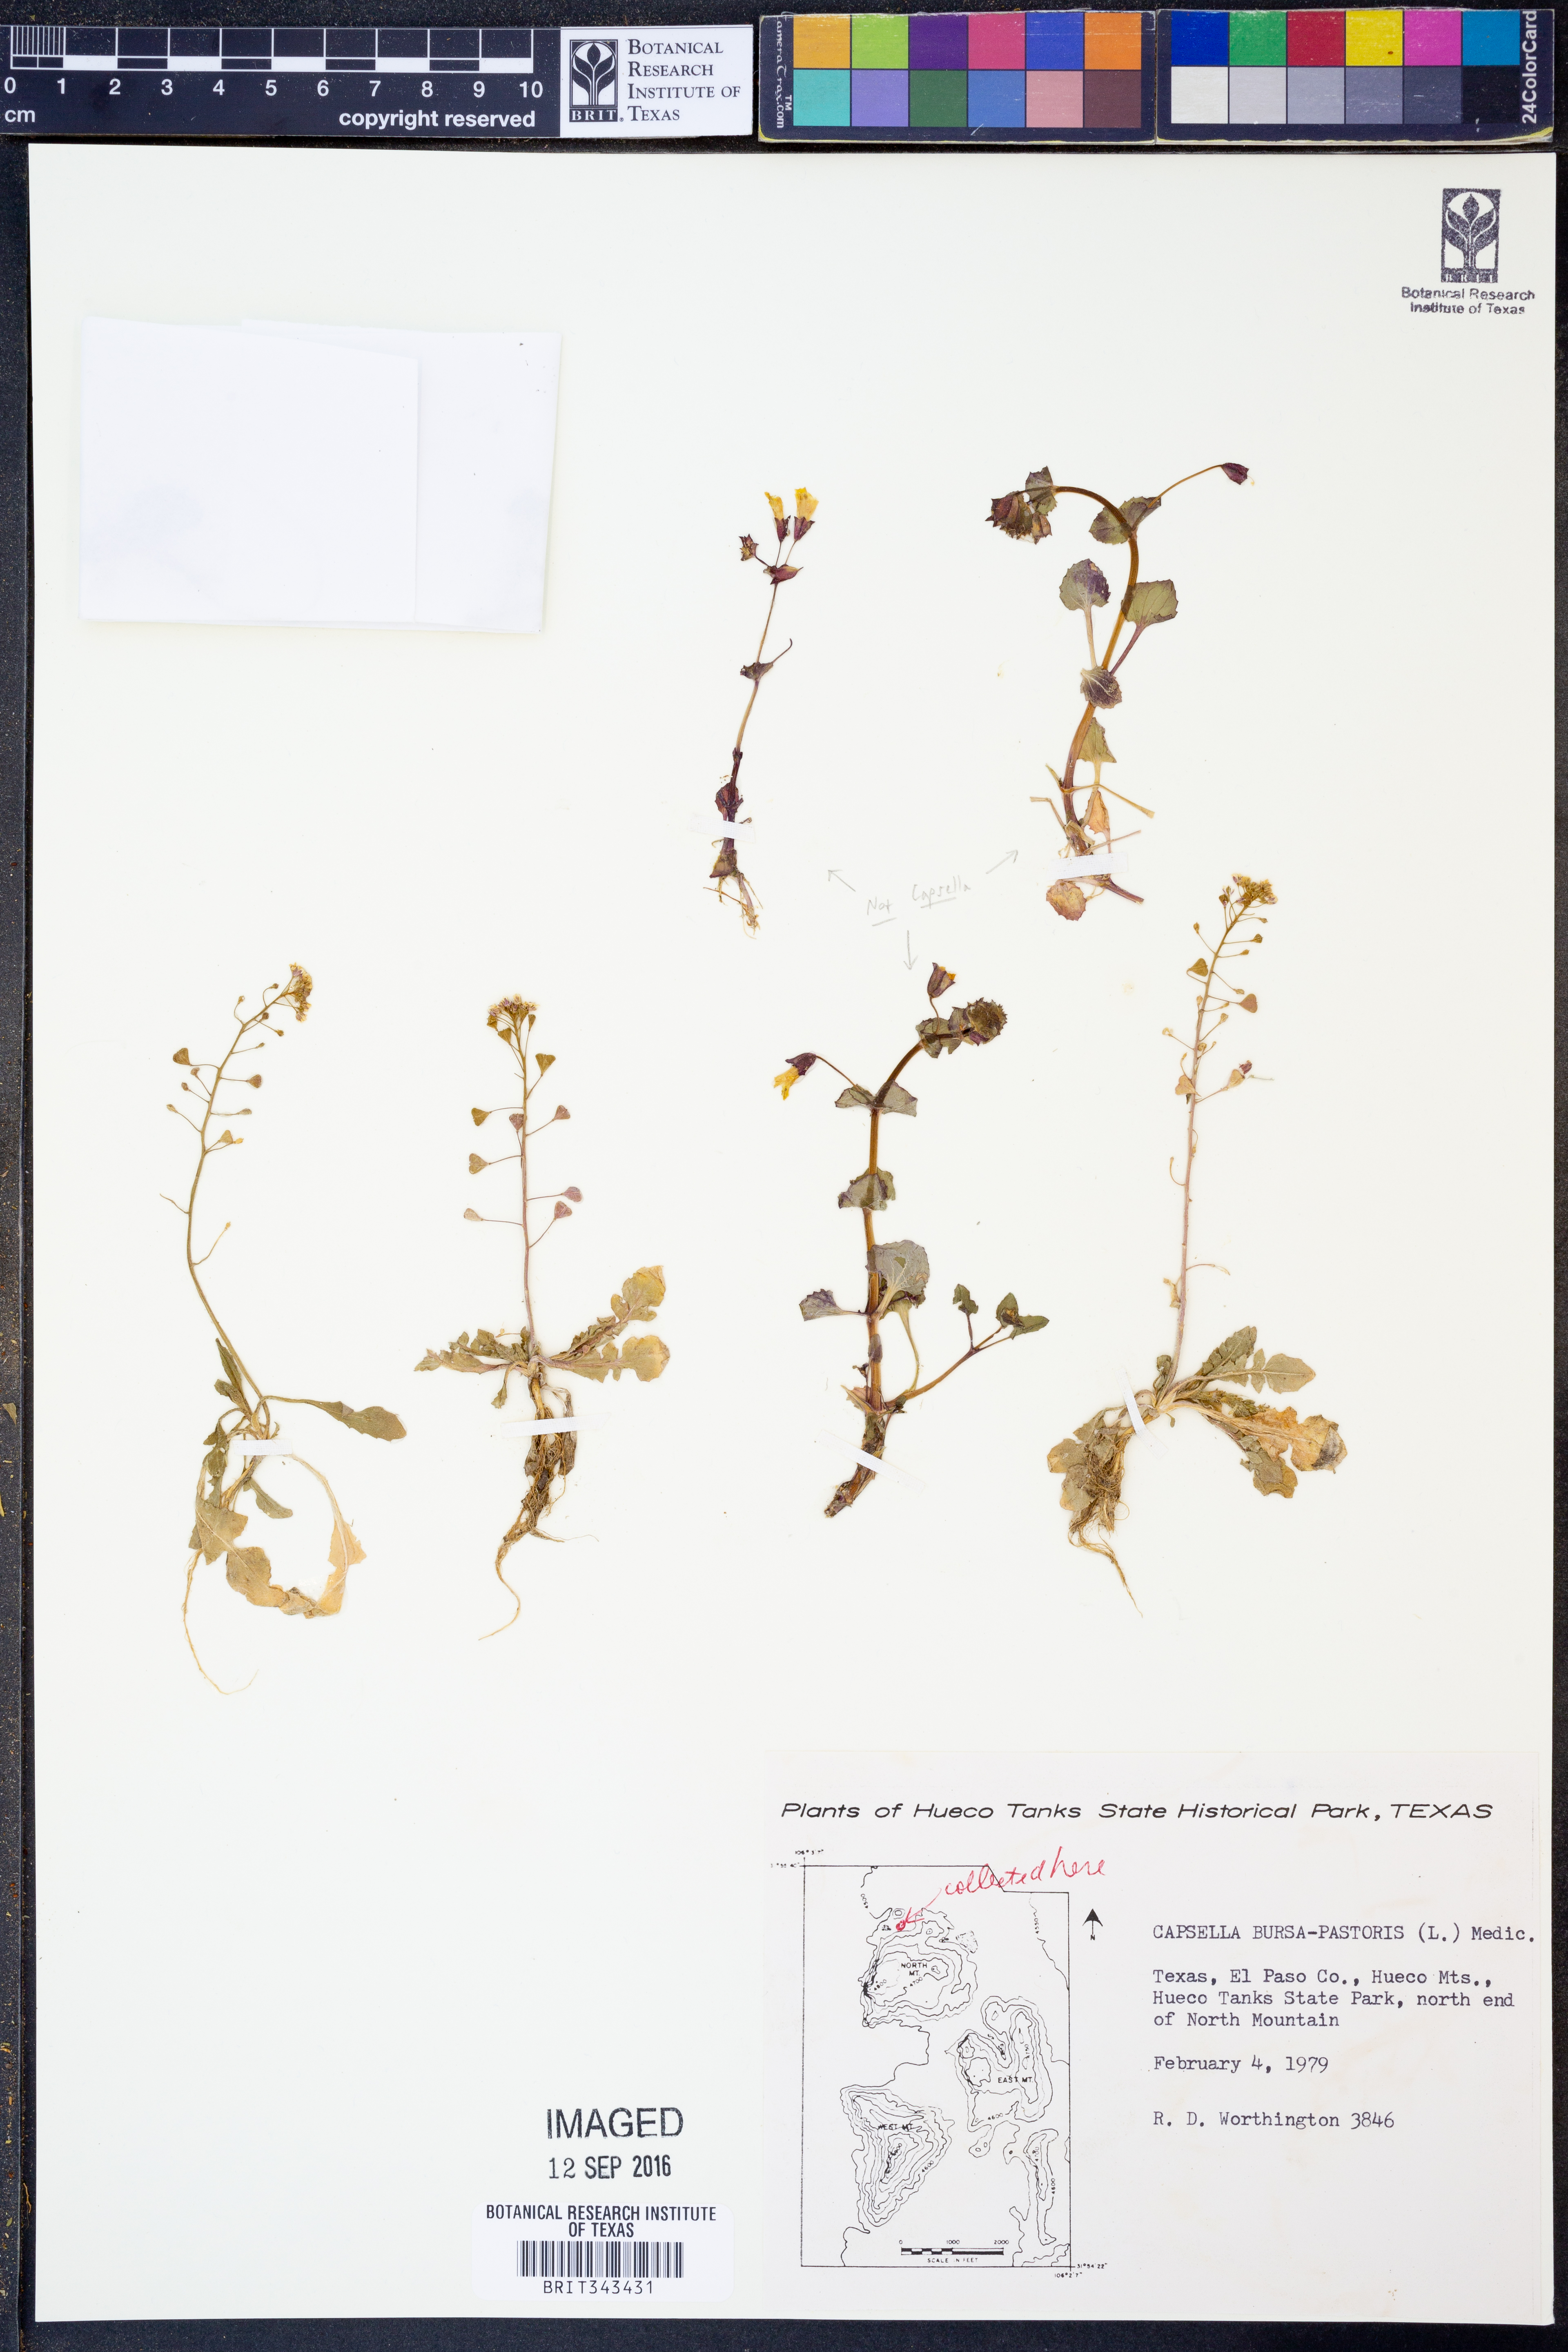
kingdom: Plantae
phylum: Tracheophyta
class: Magnoliopsida
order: Brassicales
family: Brassicaceae
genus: Capsella
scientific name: Capsella bursa-pastoris
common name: Shepherd's purse
